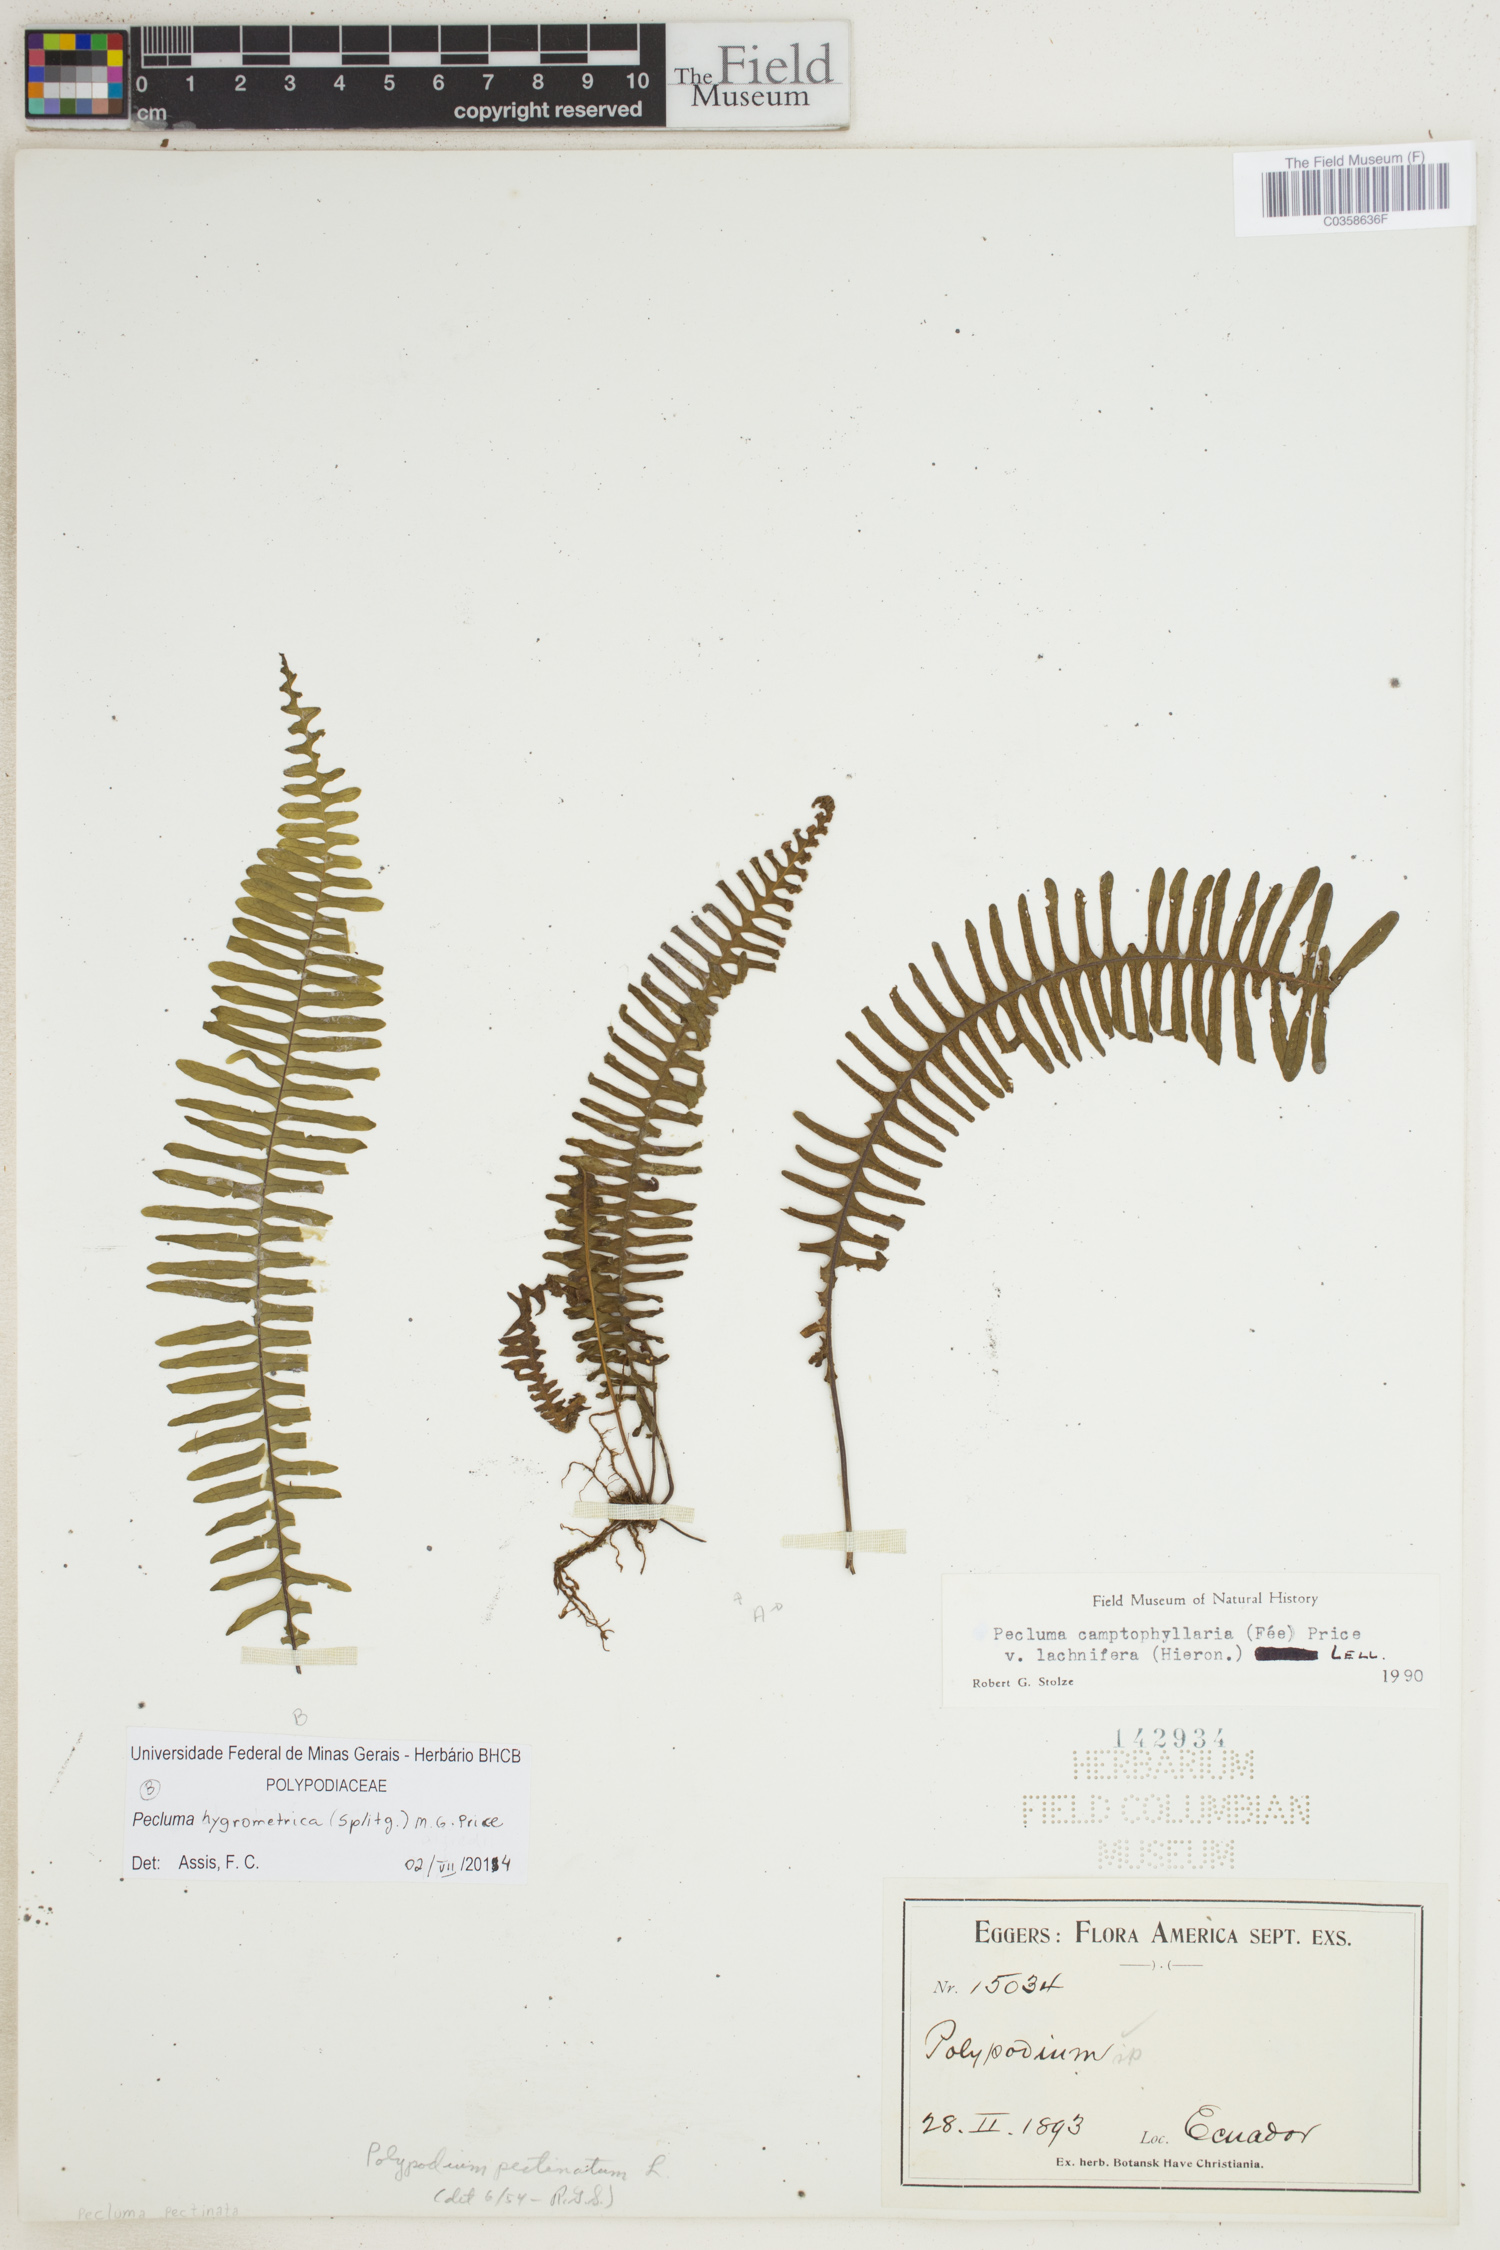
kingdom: Plantae
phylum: Tracheophyta
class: Polypodiopsida
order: Polypodiales
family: Polypodiaceae
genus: Pecluma
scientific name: Pecluma hygrometrica
